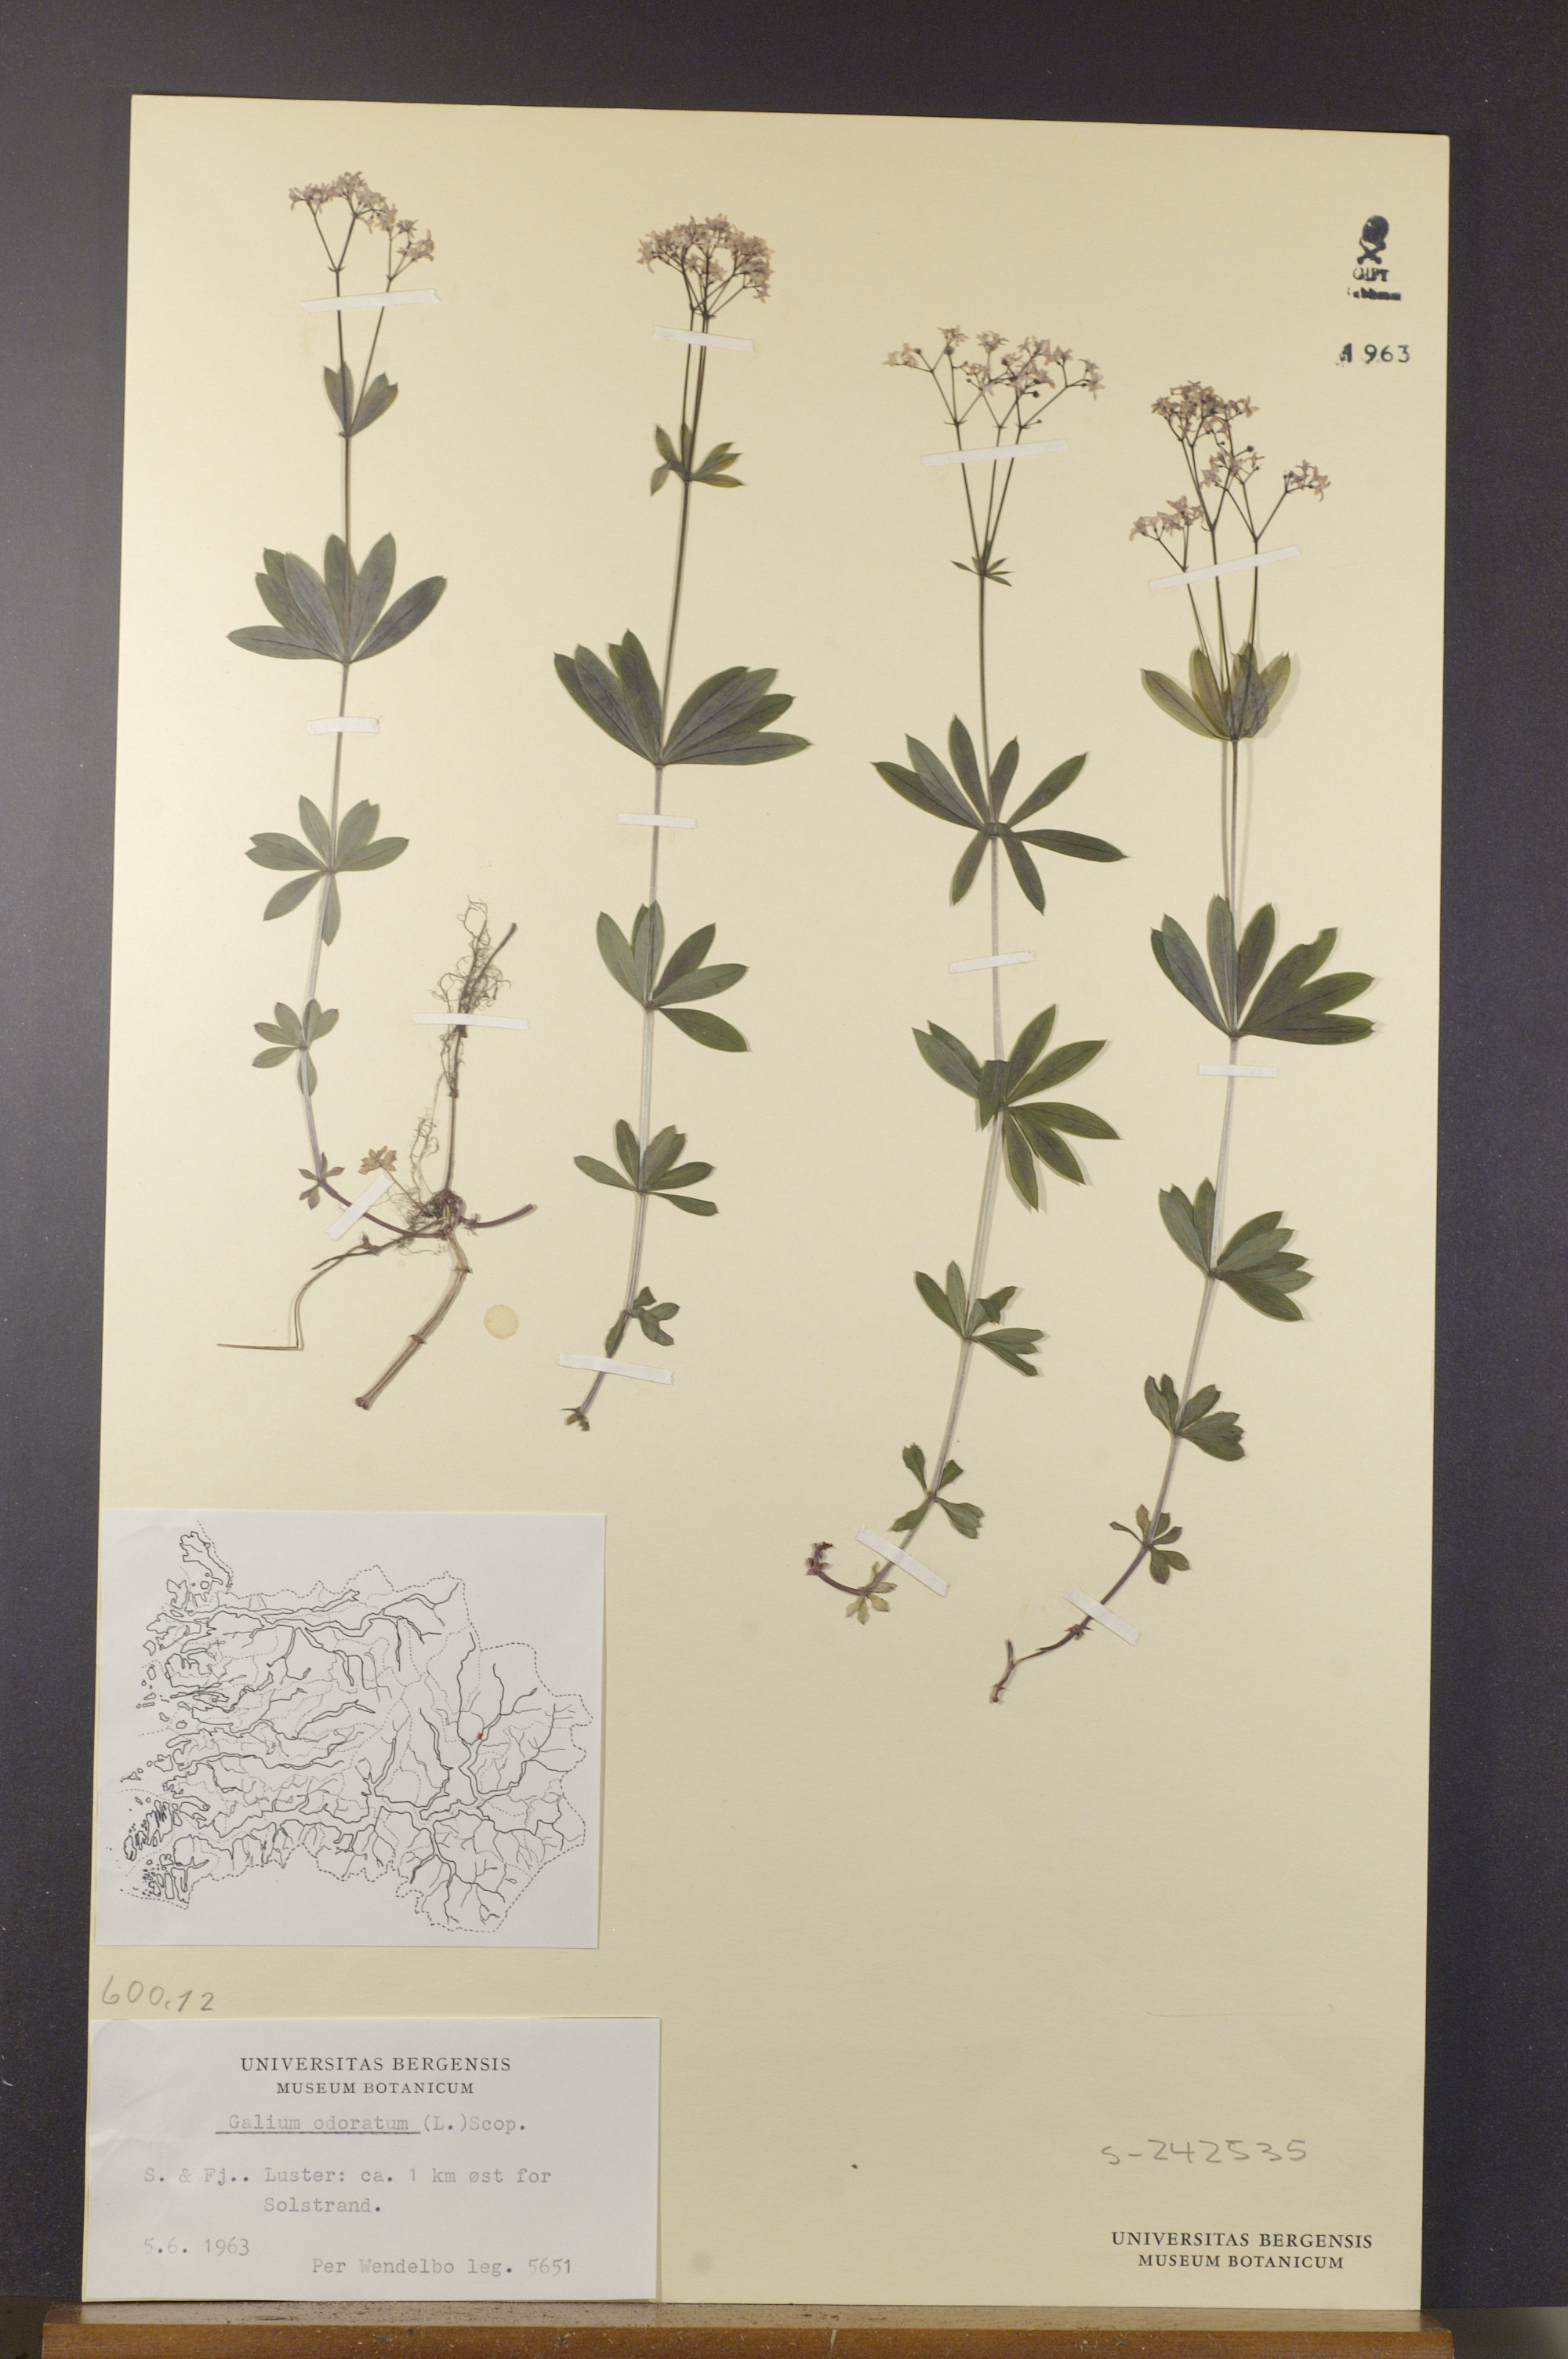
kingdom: Plantae
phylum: Tracheophyta
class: Magnoliopsida
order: Gentianales
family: Rubiaceae
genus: Galium
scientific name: Galium odoratum
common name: Sweet woodruff
